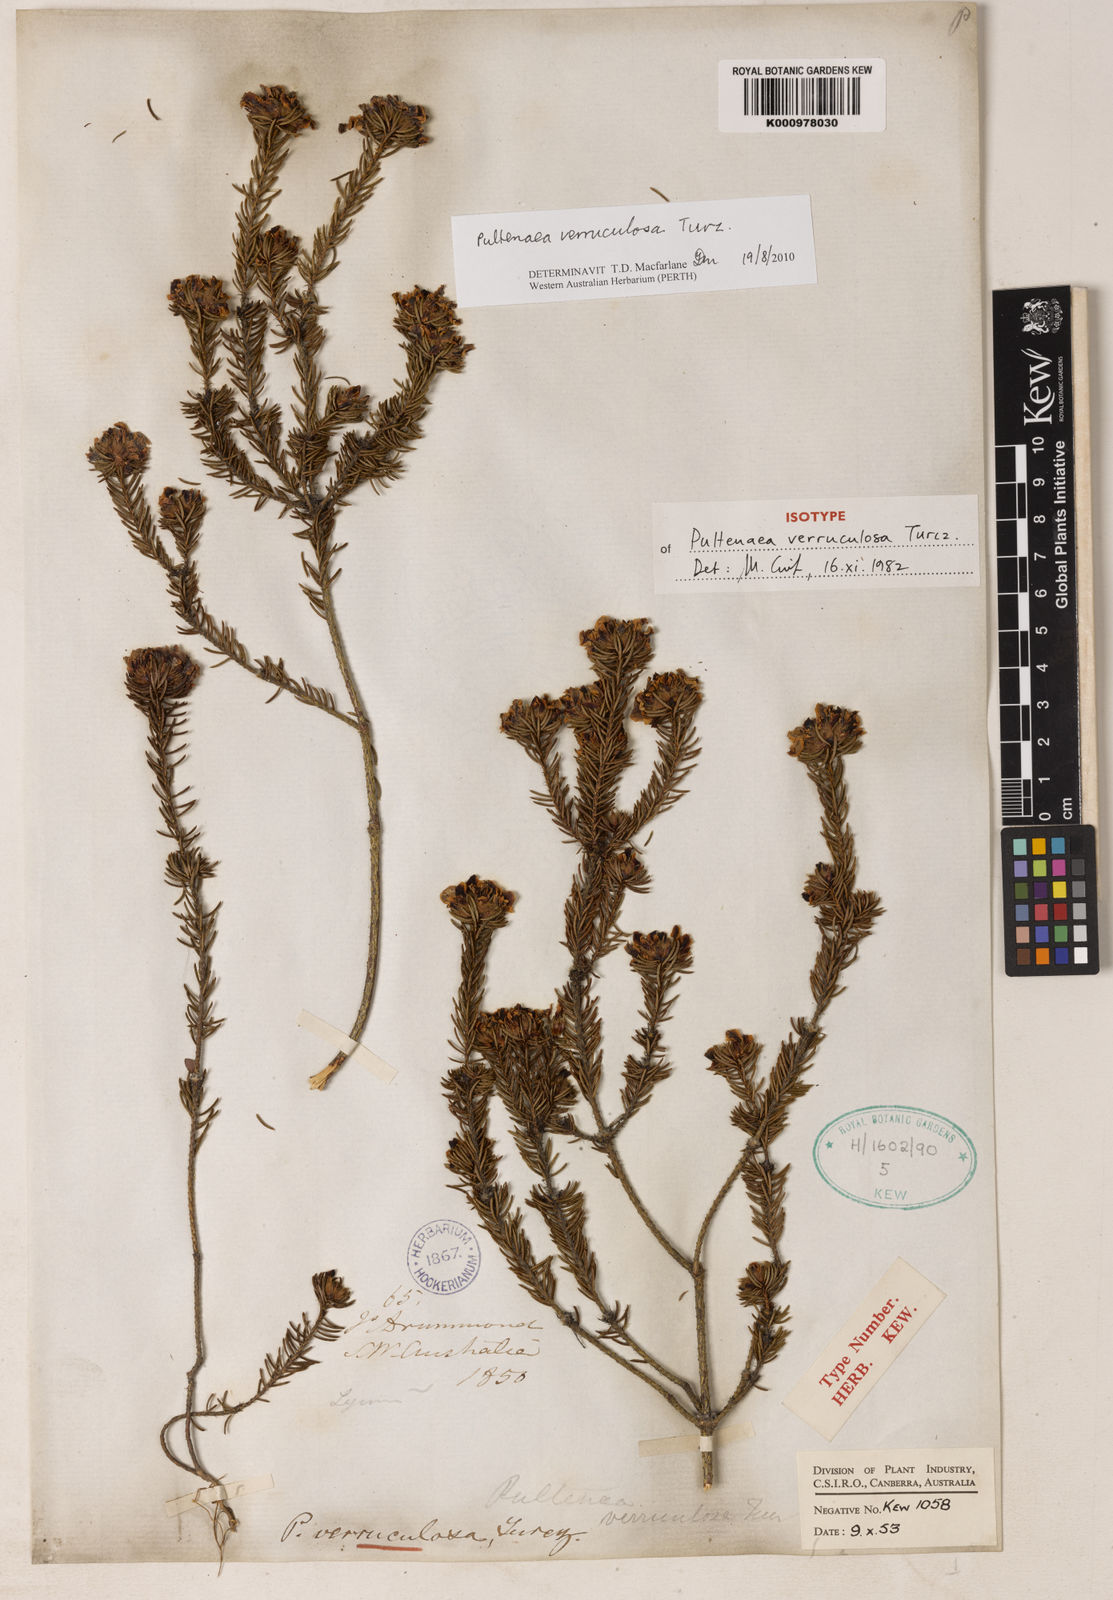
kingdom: Plantae
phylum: Tracheophyta
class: Magnoliopsida
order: Fabales
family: Fabaceae
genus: Pultenaea
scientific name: Pultenaea verruculosa
